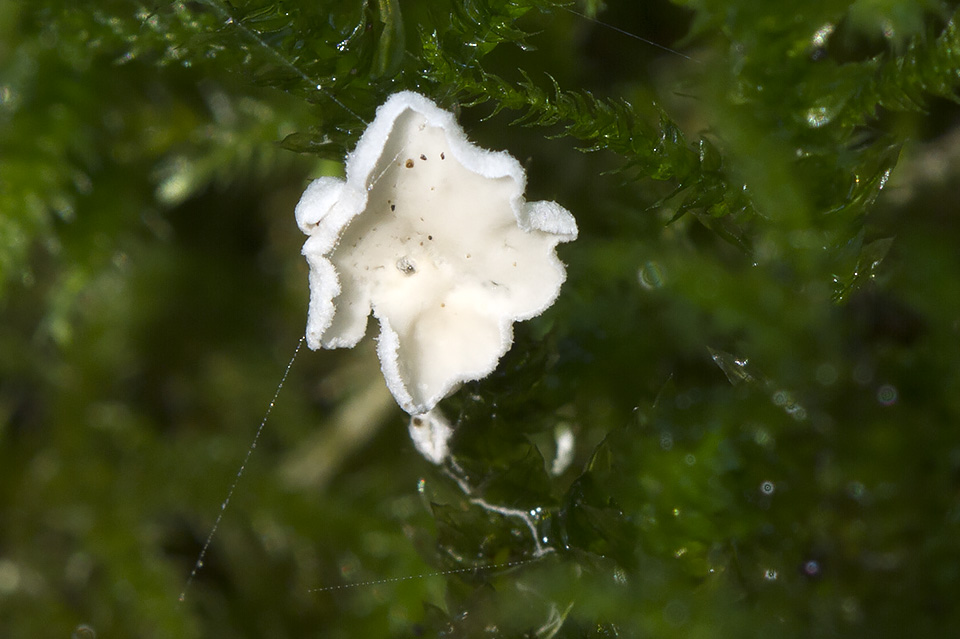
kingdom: Fungi
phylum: Basidiomycota
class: Agaricomycetes
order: Agaricales
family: Tricholomataceae
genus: Rimbachia
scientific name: Rimbachia arachnoidea
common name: Almindelig mosskål
